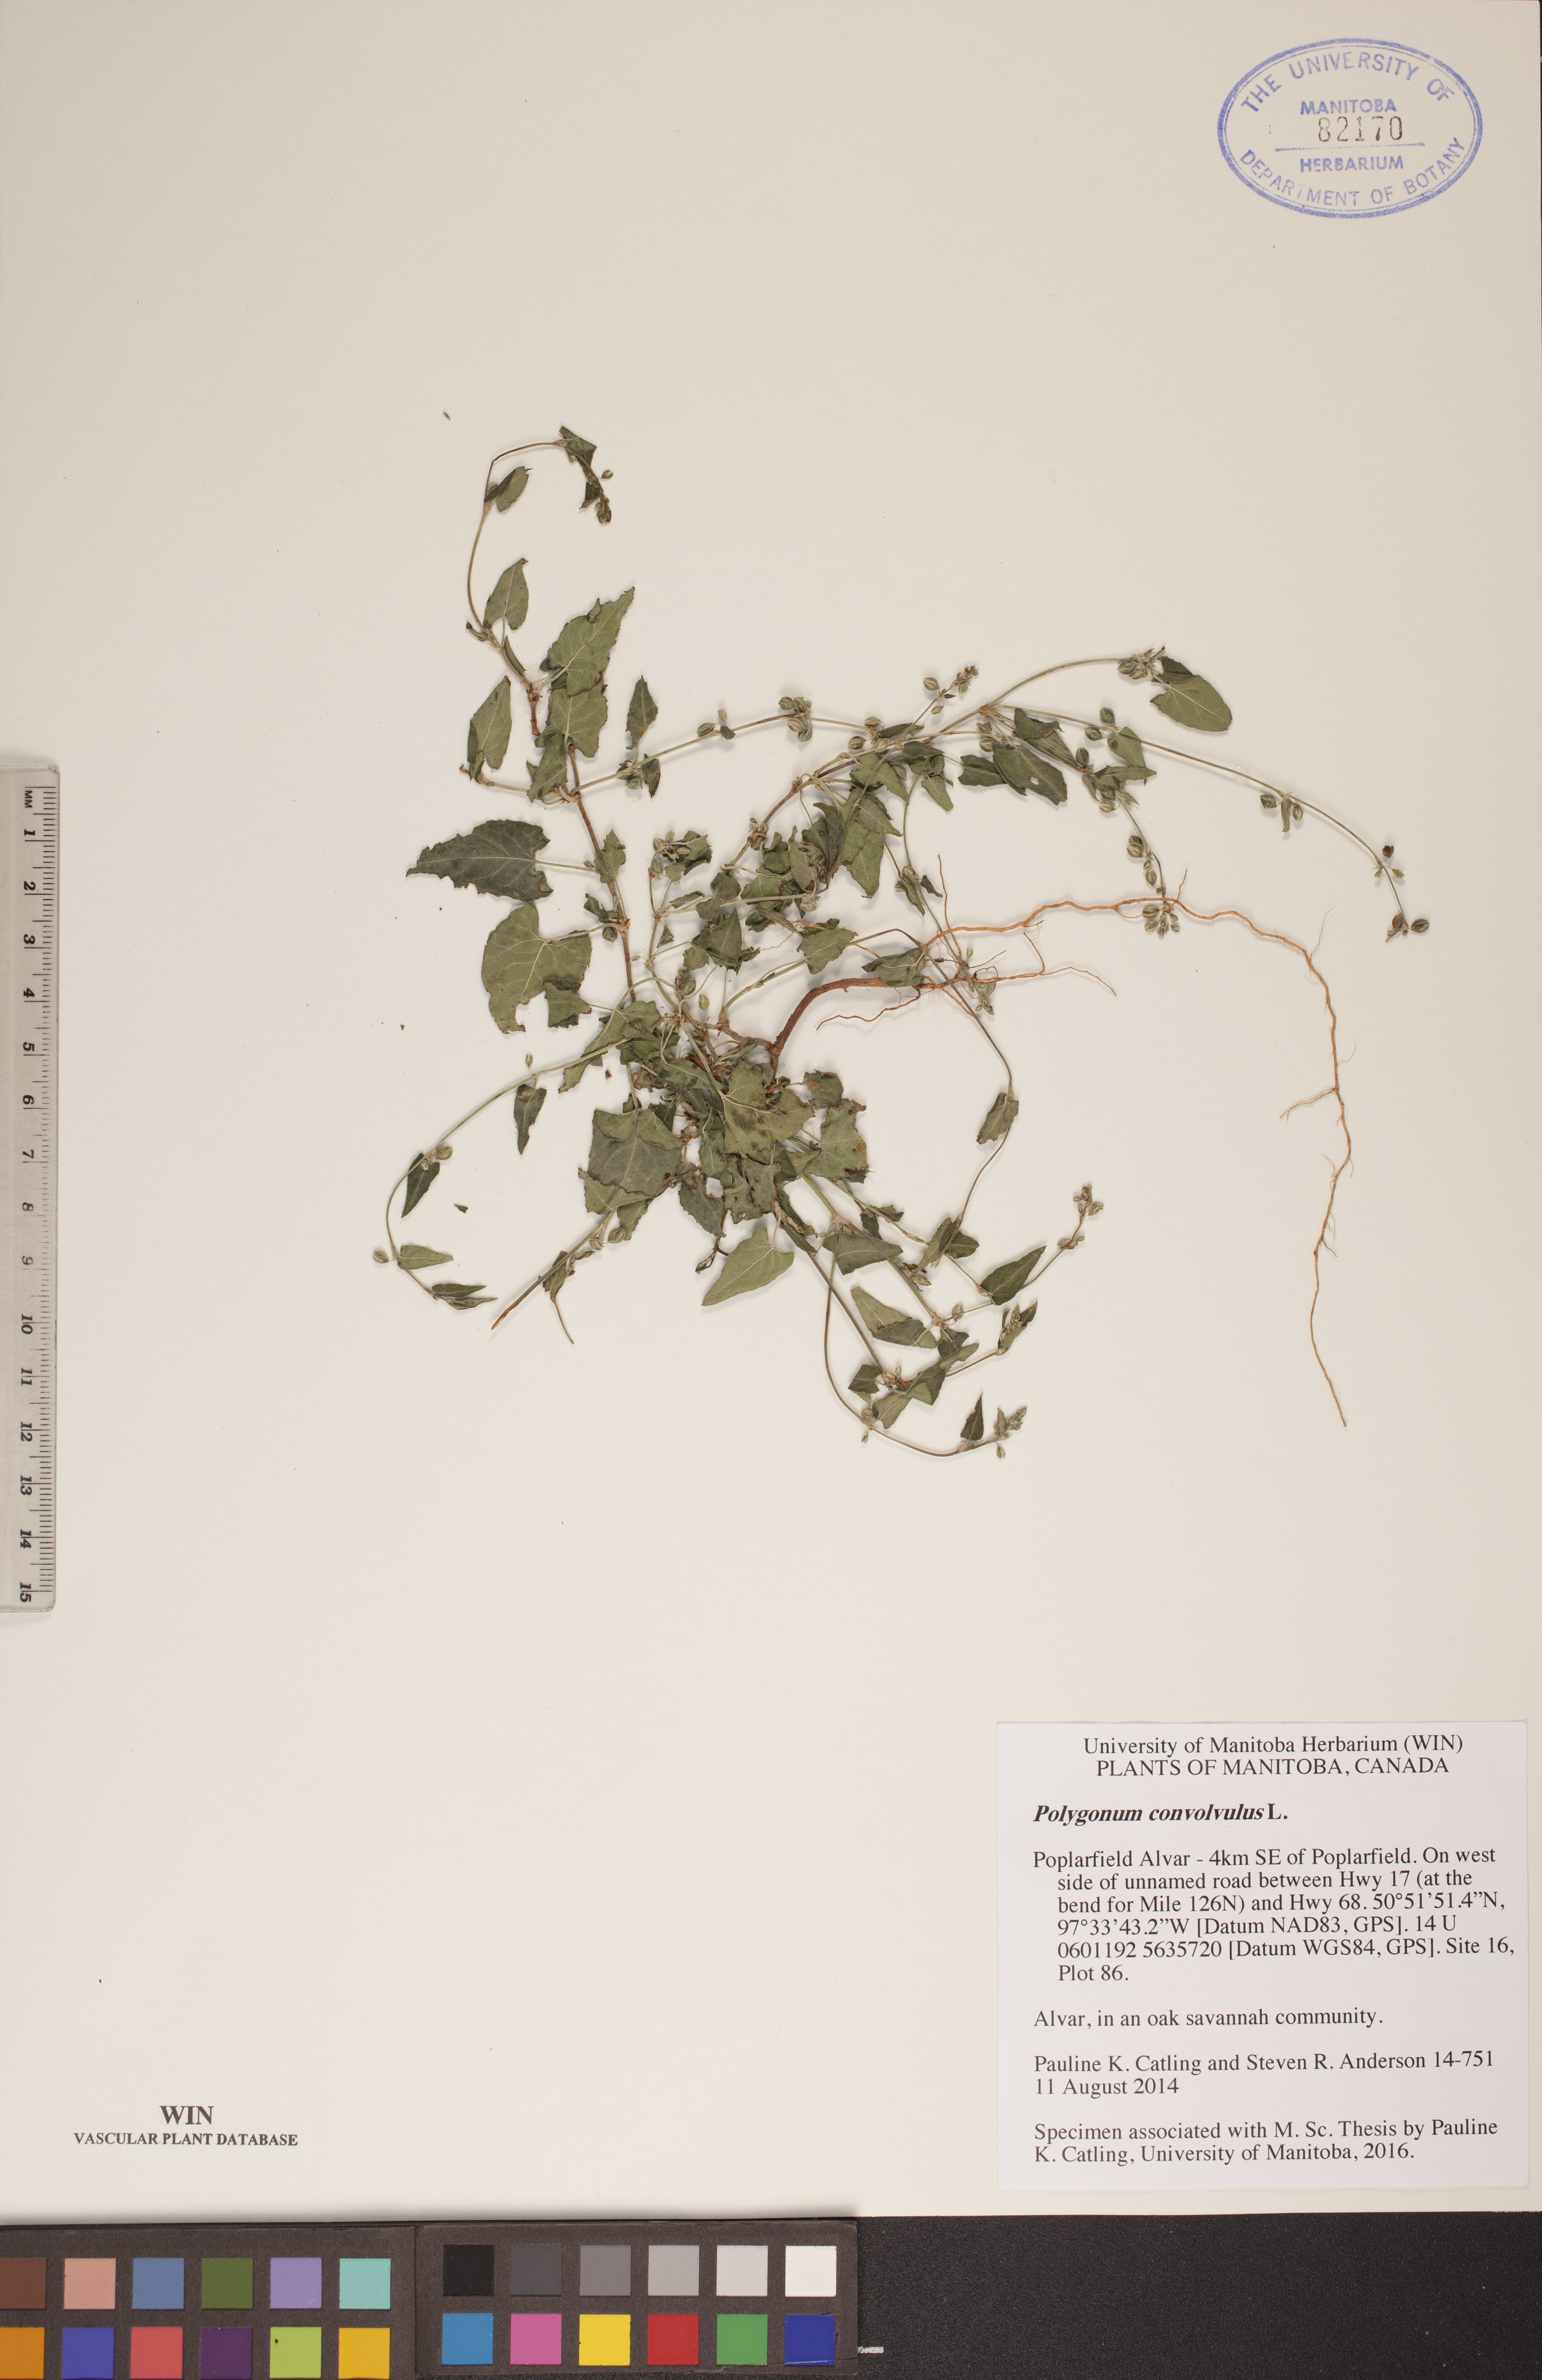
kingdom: Plantae
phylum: Tracheophyta
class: Magnoliopsida
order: Caryophyllales
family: Polygonaceae
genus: Fallopia
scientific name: Fallopia convolvulus
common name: Black bindweed
